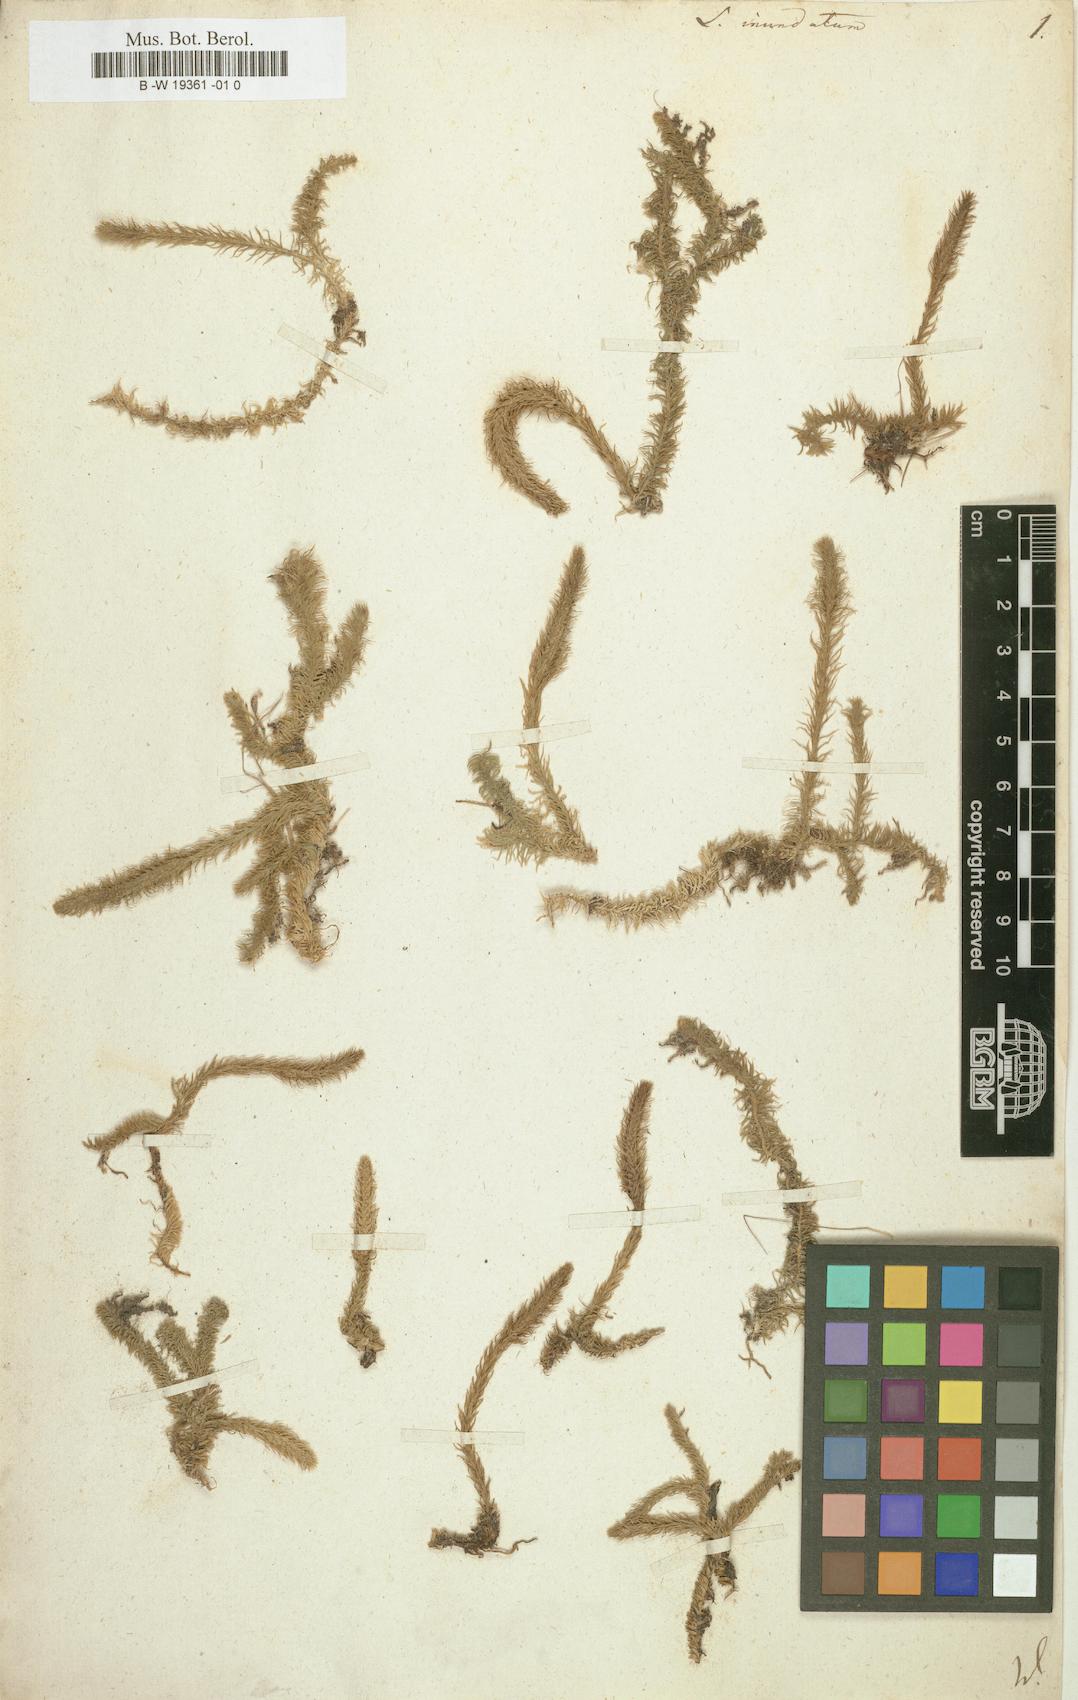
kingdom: Plantae
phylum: Tracheophyta
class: Lycopodiopsida
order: Lycopodiales
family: Lycopodiaceae
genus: Lycopodiella
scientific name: Lycopodiella inundata
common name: Marsh clubmoss
